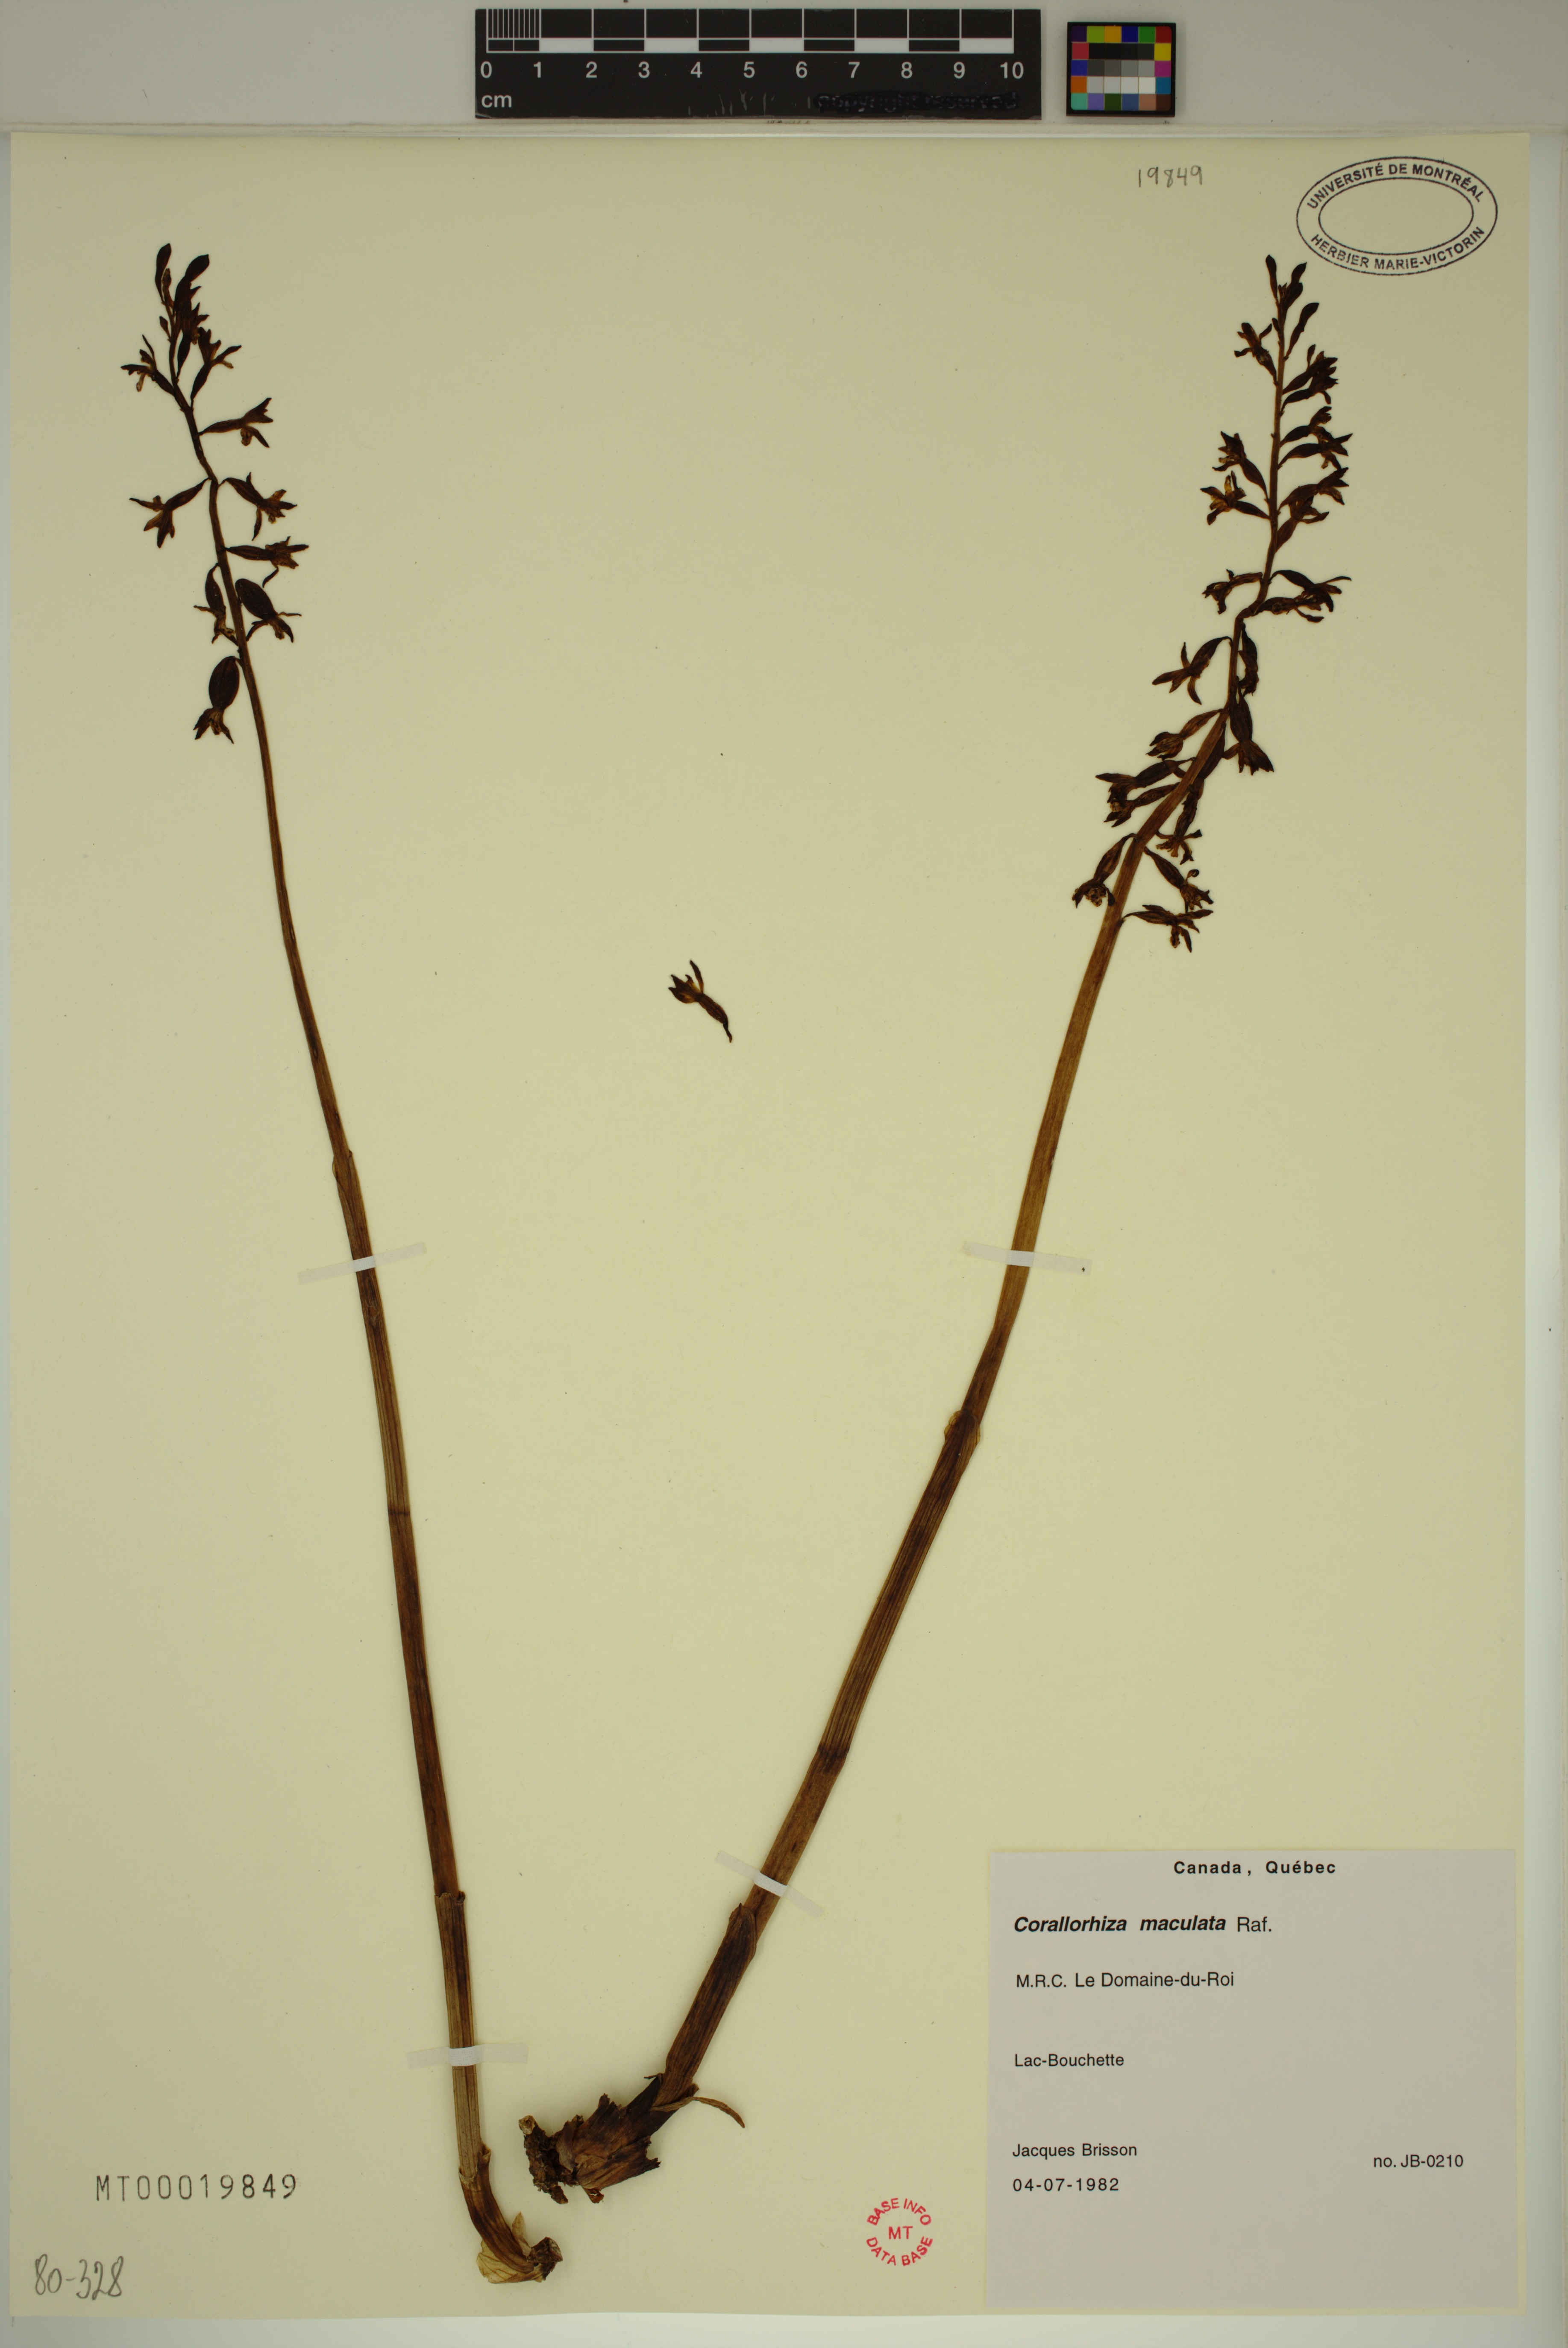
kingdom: Plantae
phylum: Tracheophyta
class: Liliopsida
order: Asparagales
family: Orchidaceae
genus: Corallorhiza
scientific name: Corallorhiza maculata
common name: Spotted coralroot
